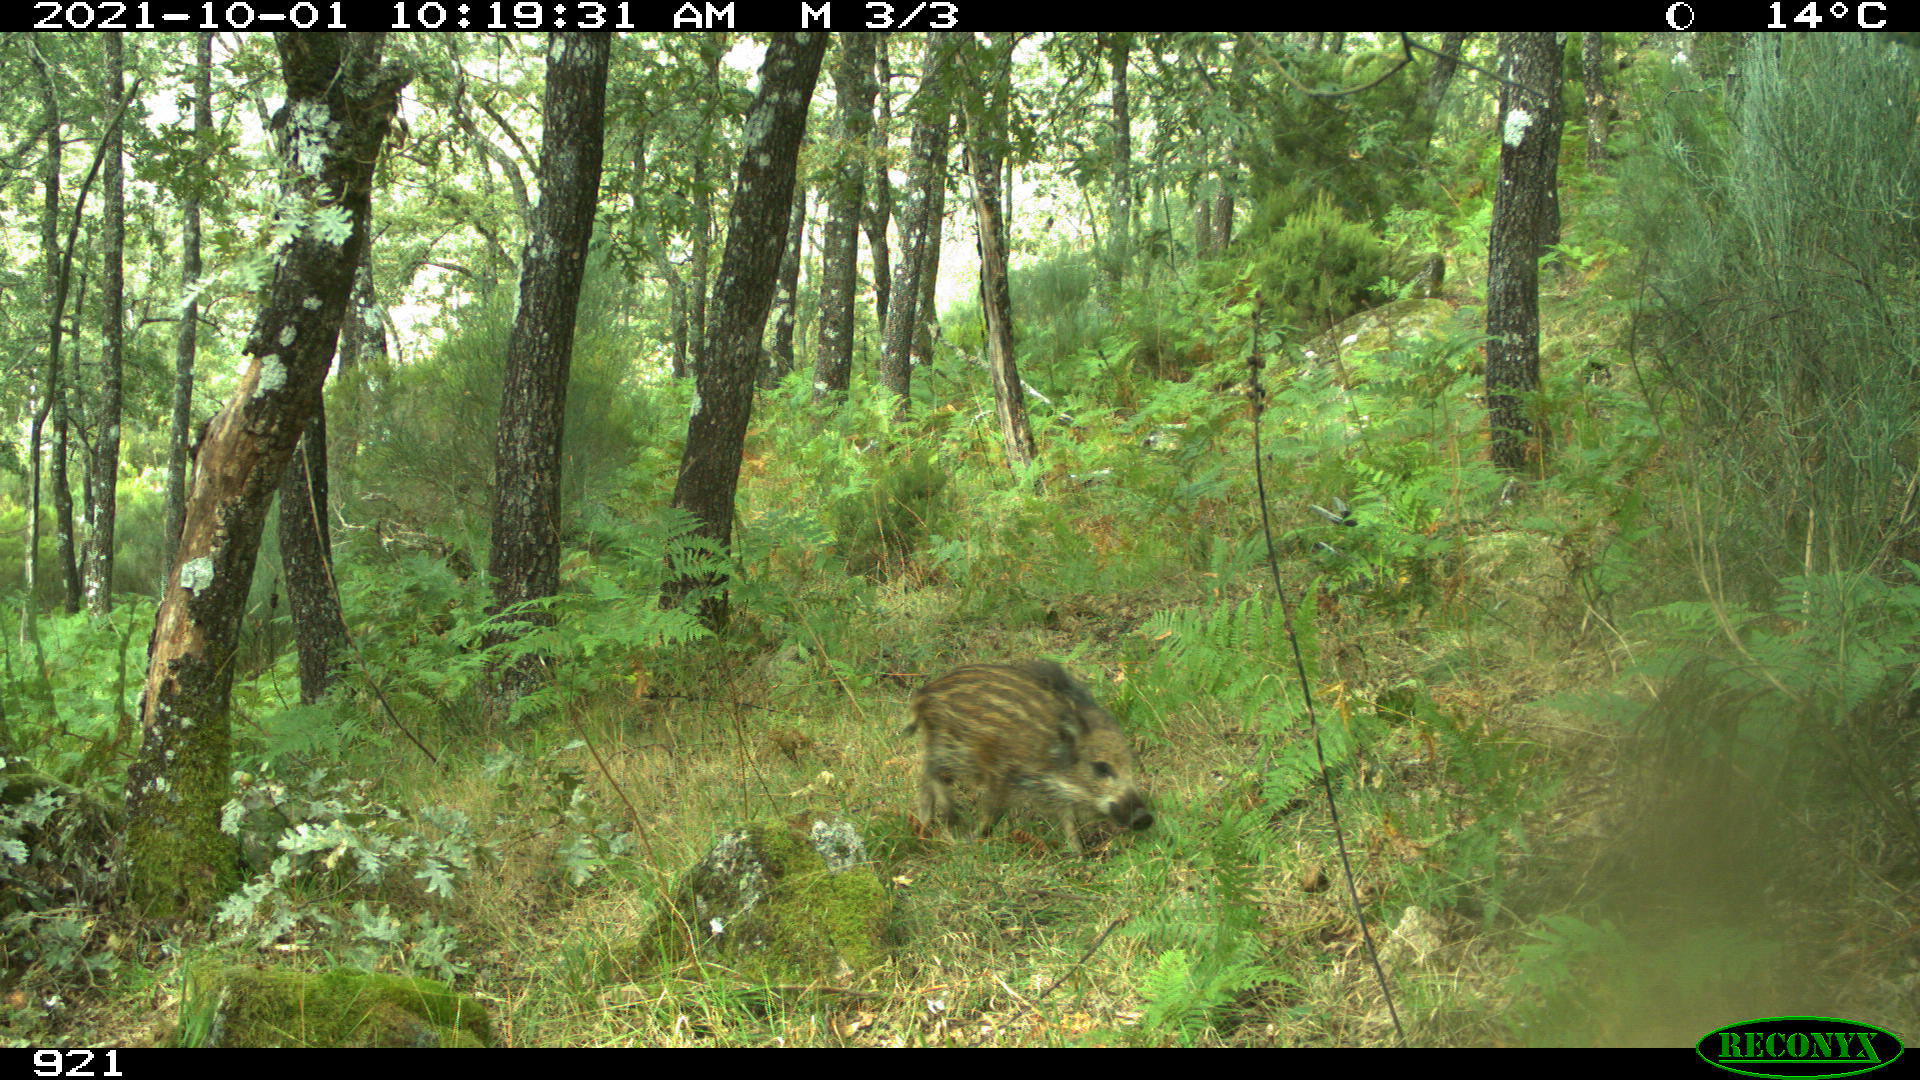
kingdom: Animalia
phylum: Chordata
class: Mammalia
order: Artiodactyla
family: Suidae
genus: Sus
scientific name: Sus scrofa
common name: Wild boar
